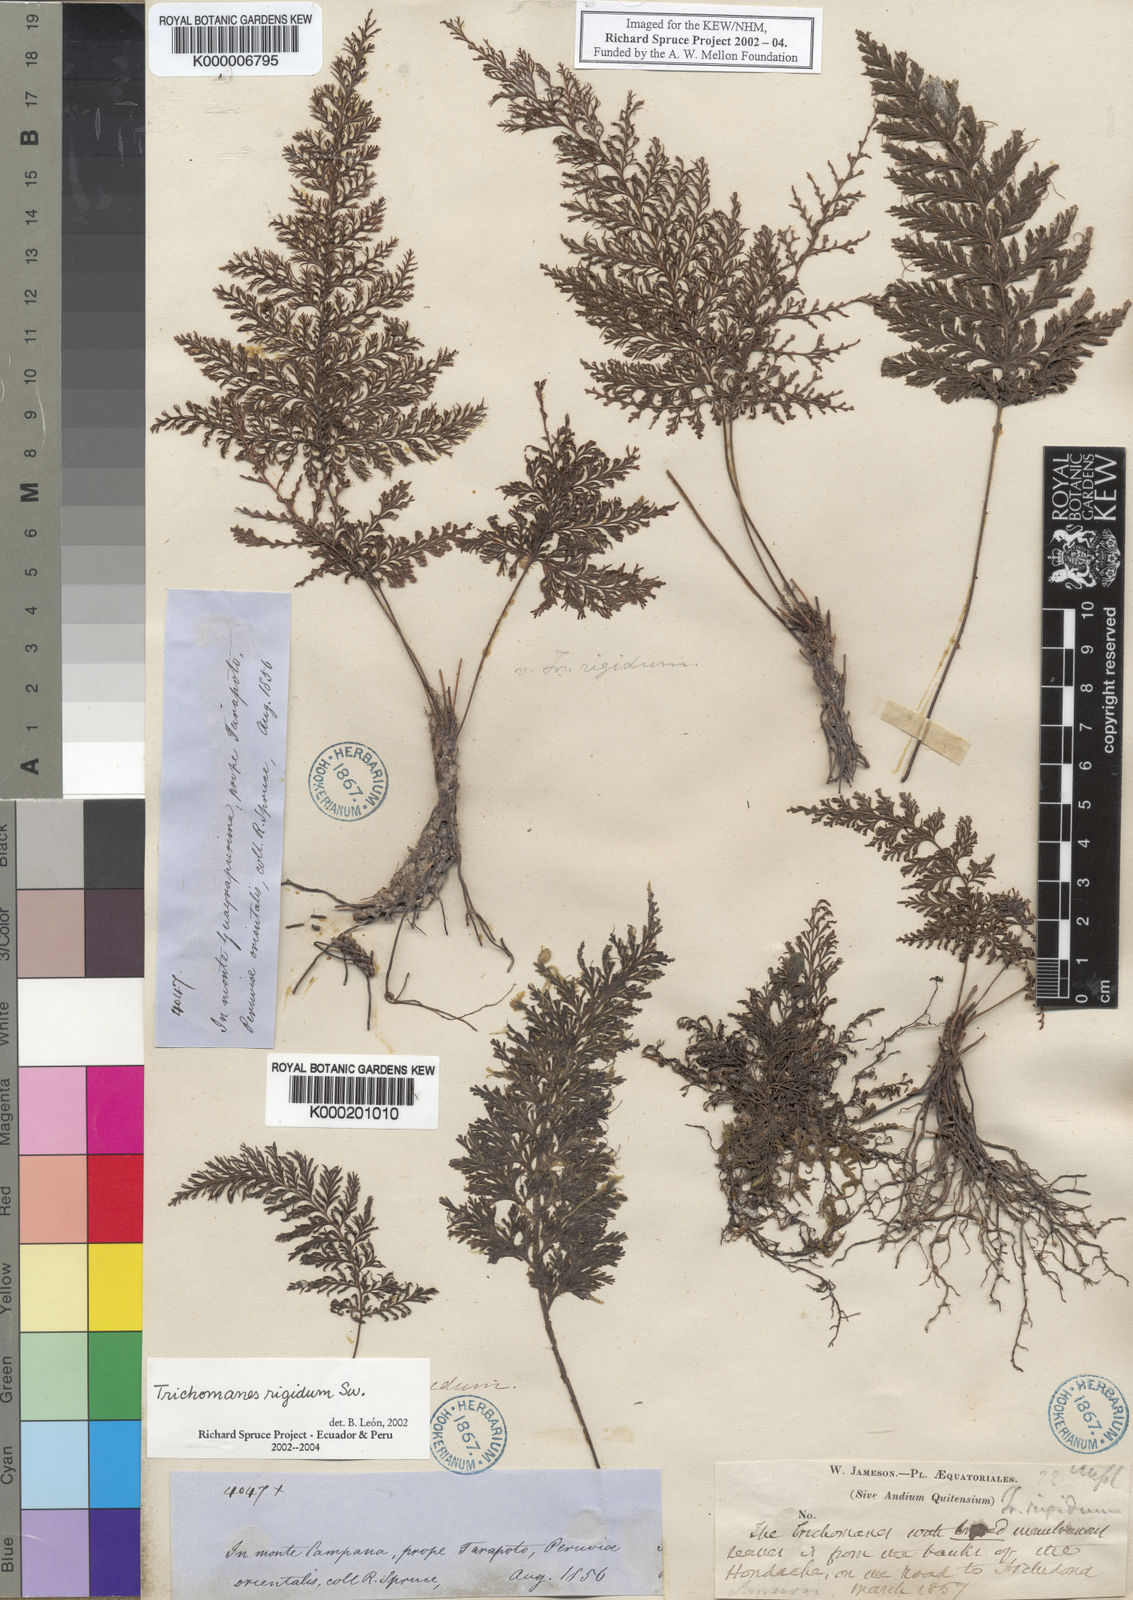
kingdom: Plantae
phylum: Tracheophyta
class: Polypodiopsida
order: Hymenophyllales
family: Hymenophyllaceae
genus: Abrodictyum
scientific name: Abrodictyum rigidum
